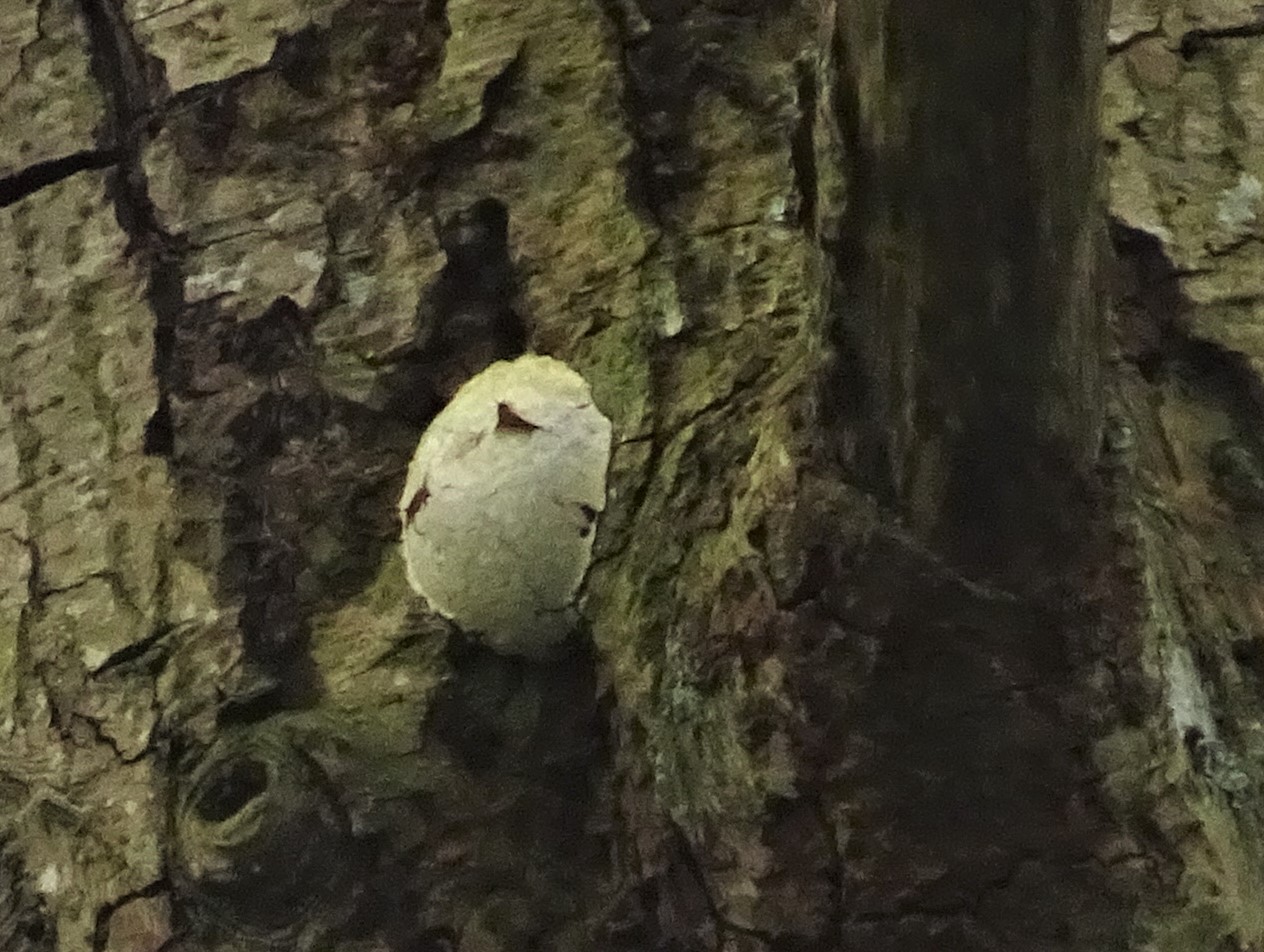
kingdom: Protozoa
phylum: Mycetozoa
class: Myxomycetes
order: Cribrariales
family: Tubiferaceae
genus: Reticularia
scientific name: Reticularia lycoperdon
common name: skinnende støvpude
